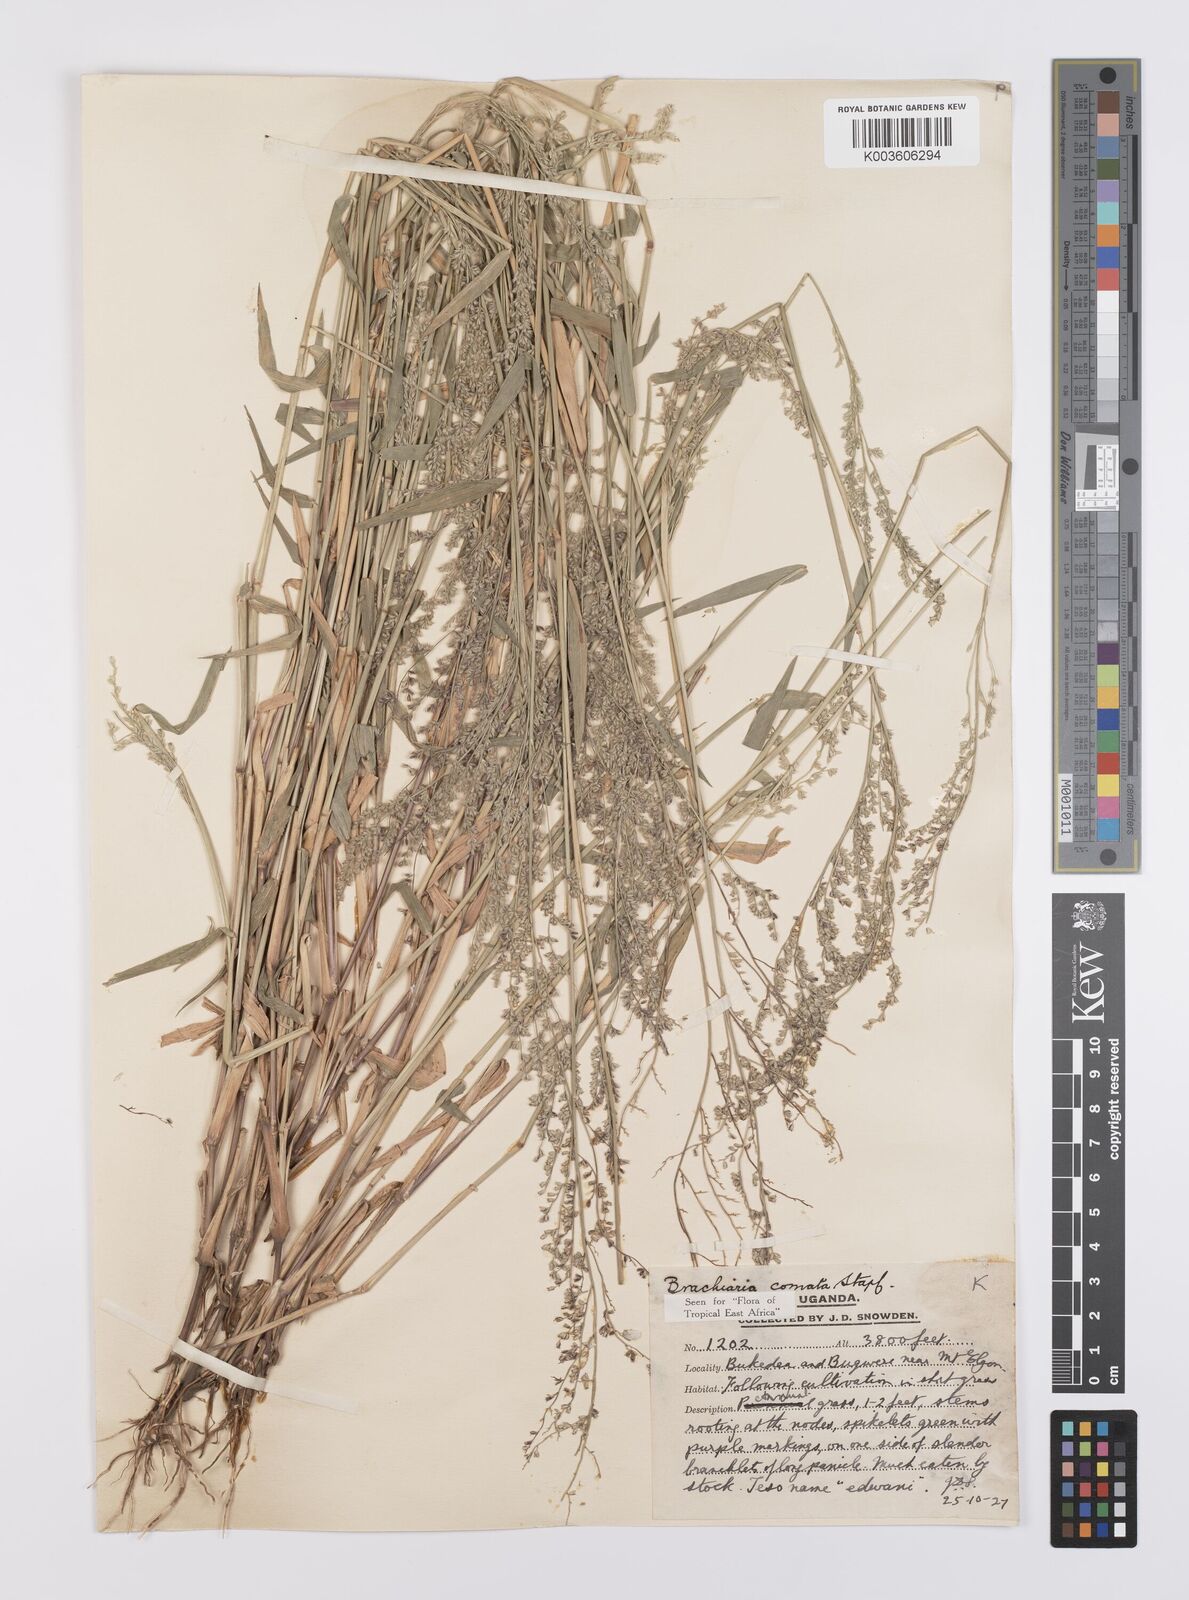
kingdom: Plantae
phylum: Tracheophyta
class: Liliopsida
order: Poales
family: Poaceae
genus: Urochloa
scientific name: Urochloa comata
